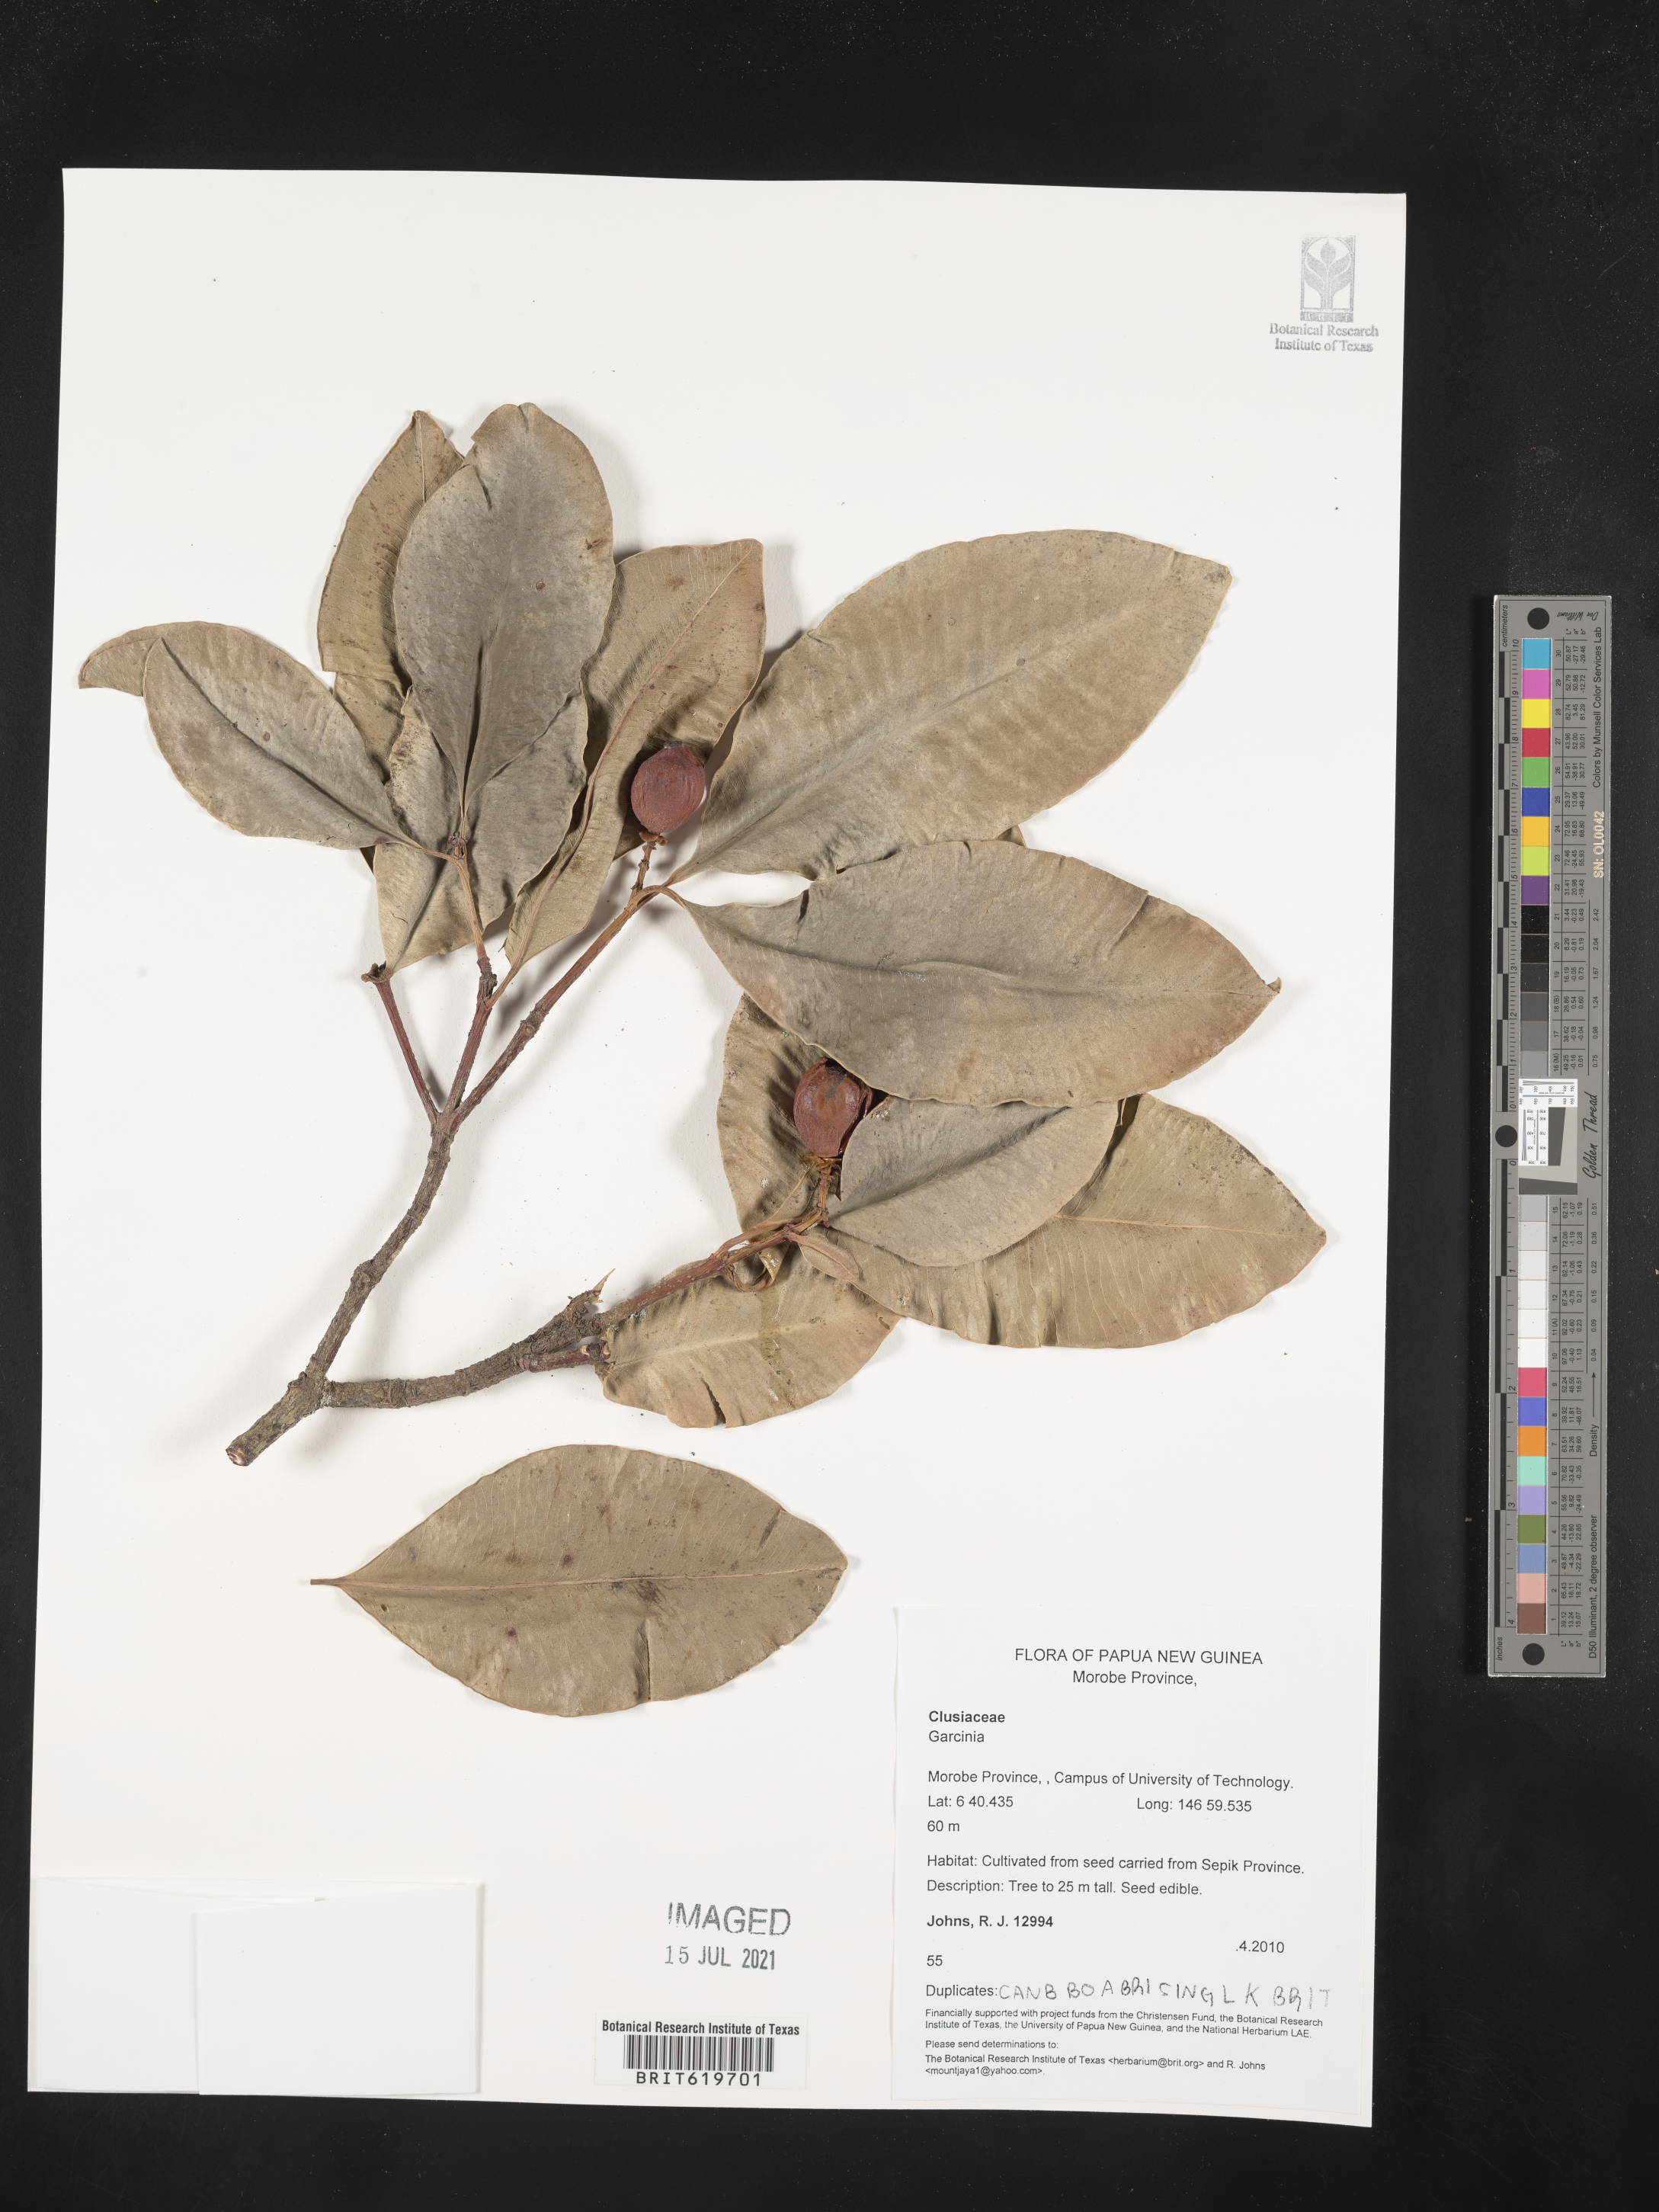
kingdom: Plantae
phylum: Tracheophyta
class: Magnoliopsida
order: Malpighiales
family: Clusiaceae
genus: Garcinia
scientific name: Garcinia
